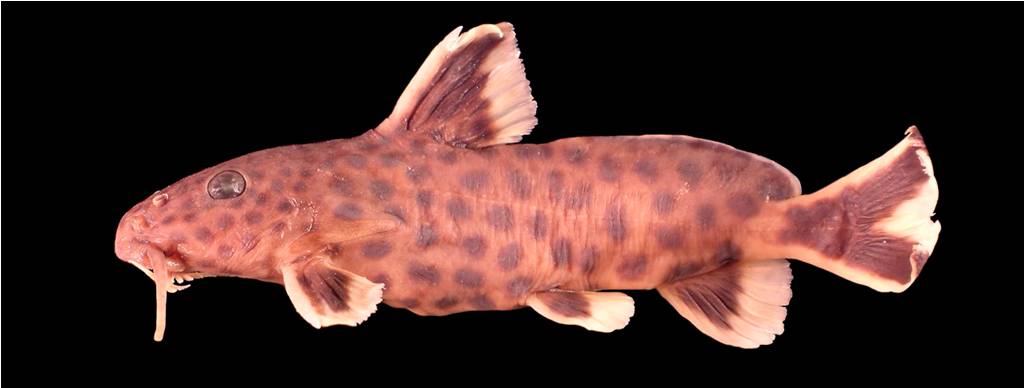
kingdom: Animalia
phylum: Chordata
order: Siluriformes
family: Mochokidae
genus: Synodontis
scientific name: Synodontis lucipinnis
